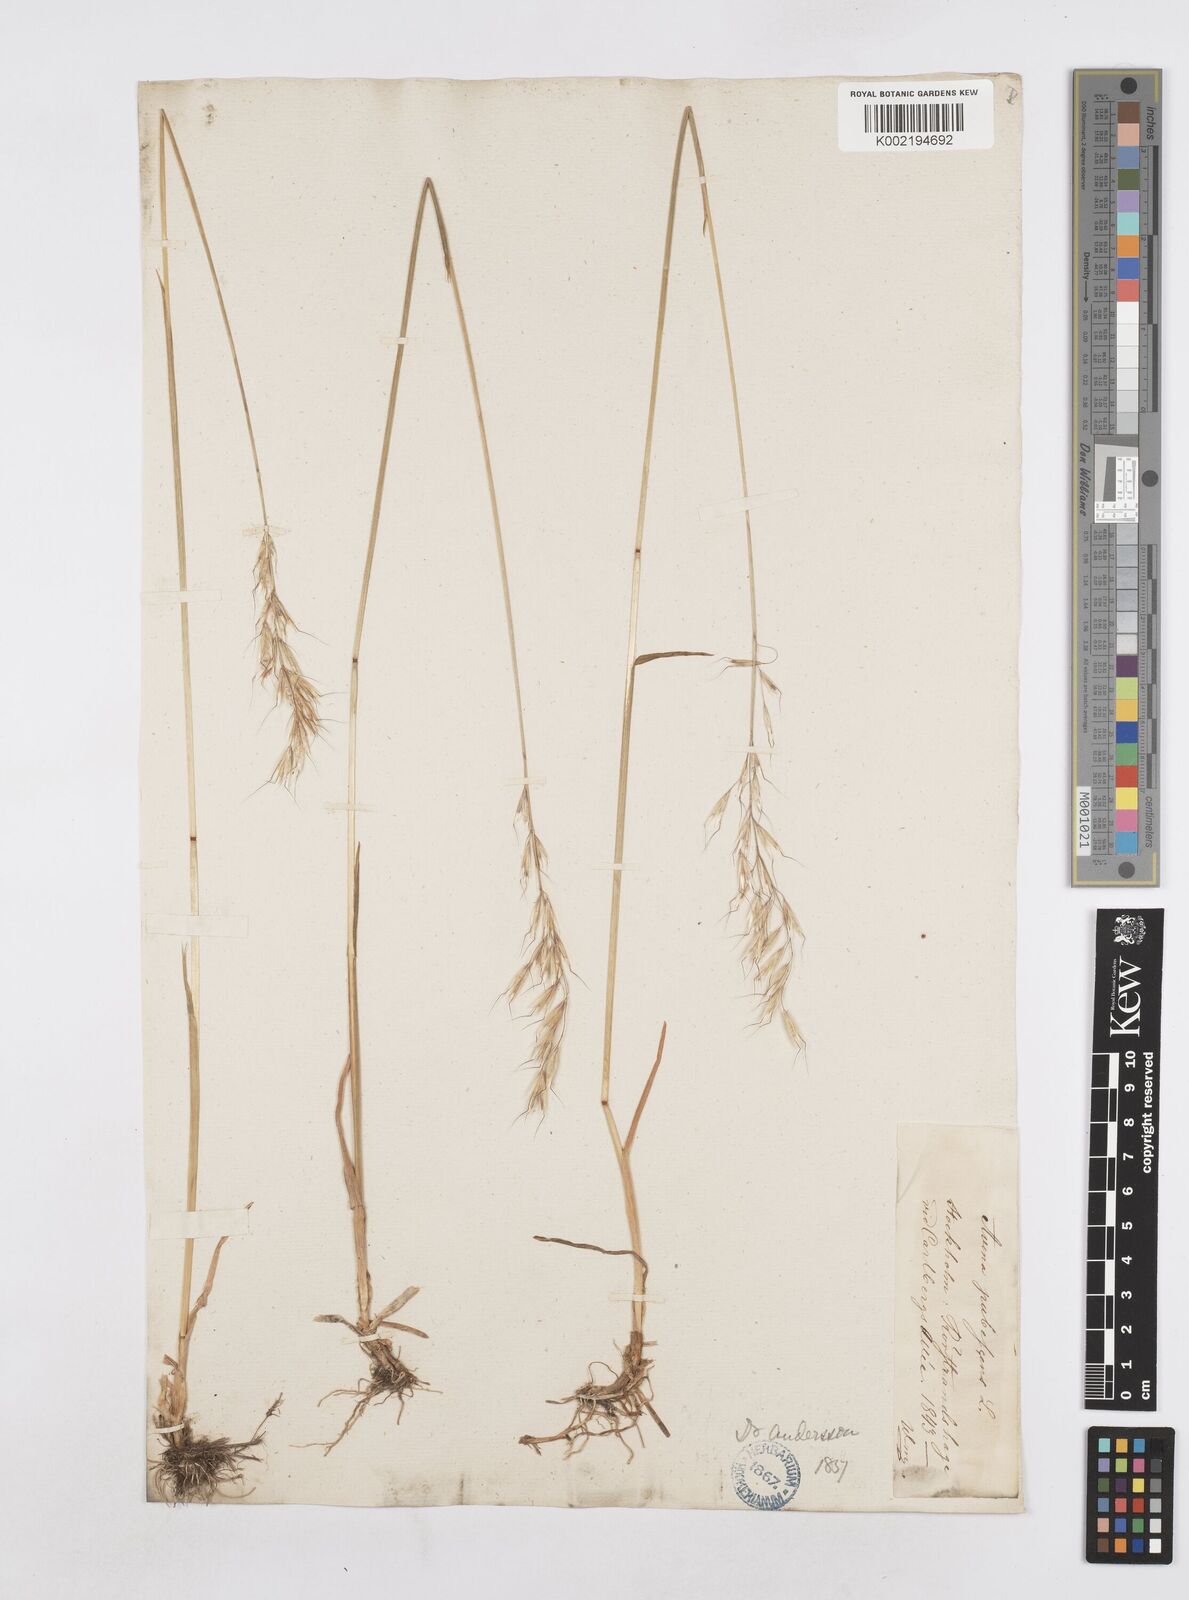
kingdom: Plantae
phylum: Tracheophyta
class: Liliopsida
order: Poales
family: Poaceae
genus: Avenula
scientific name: Avenula pubescens
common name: Downy alpine oatgrass
